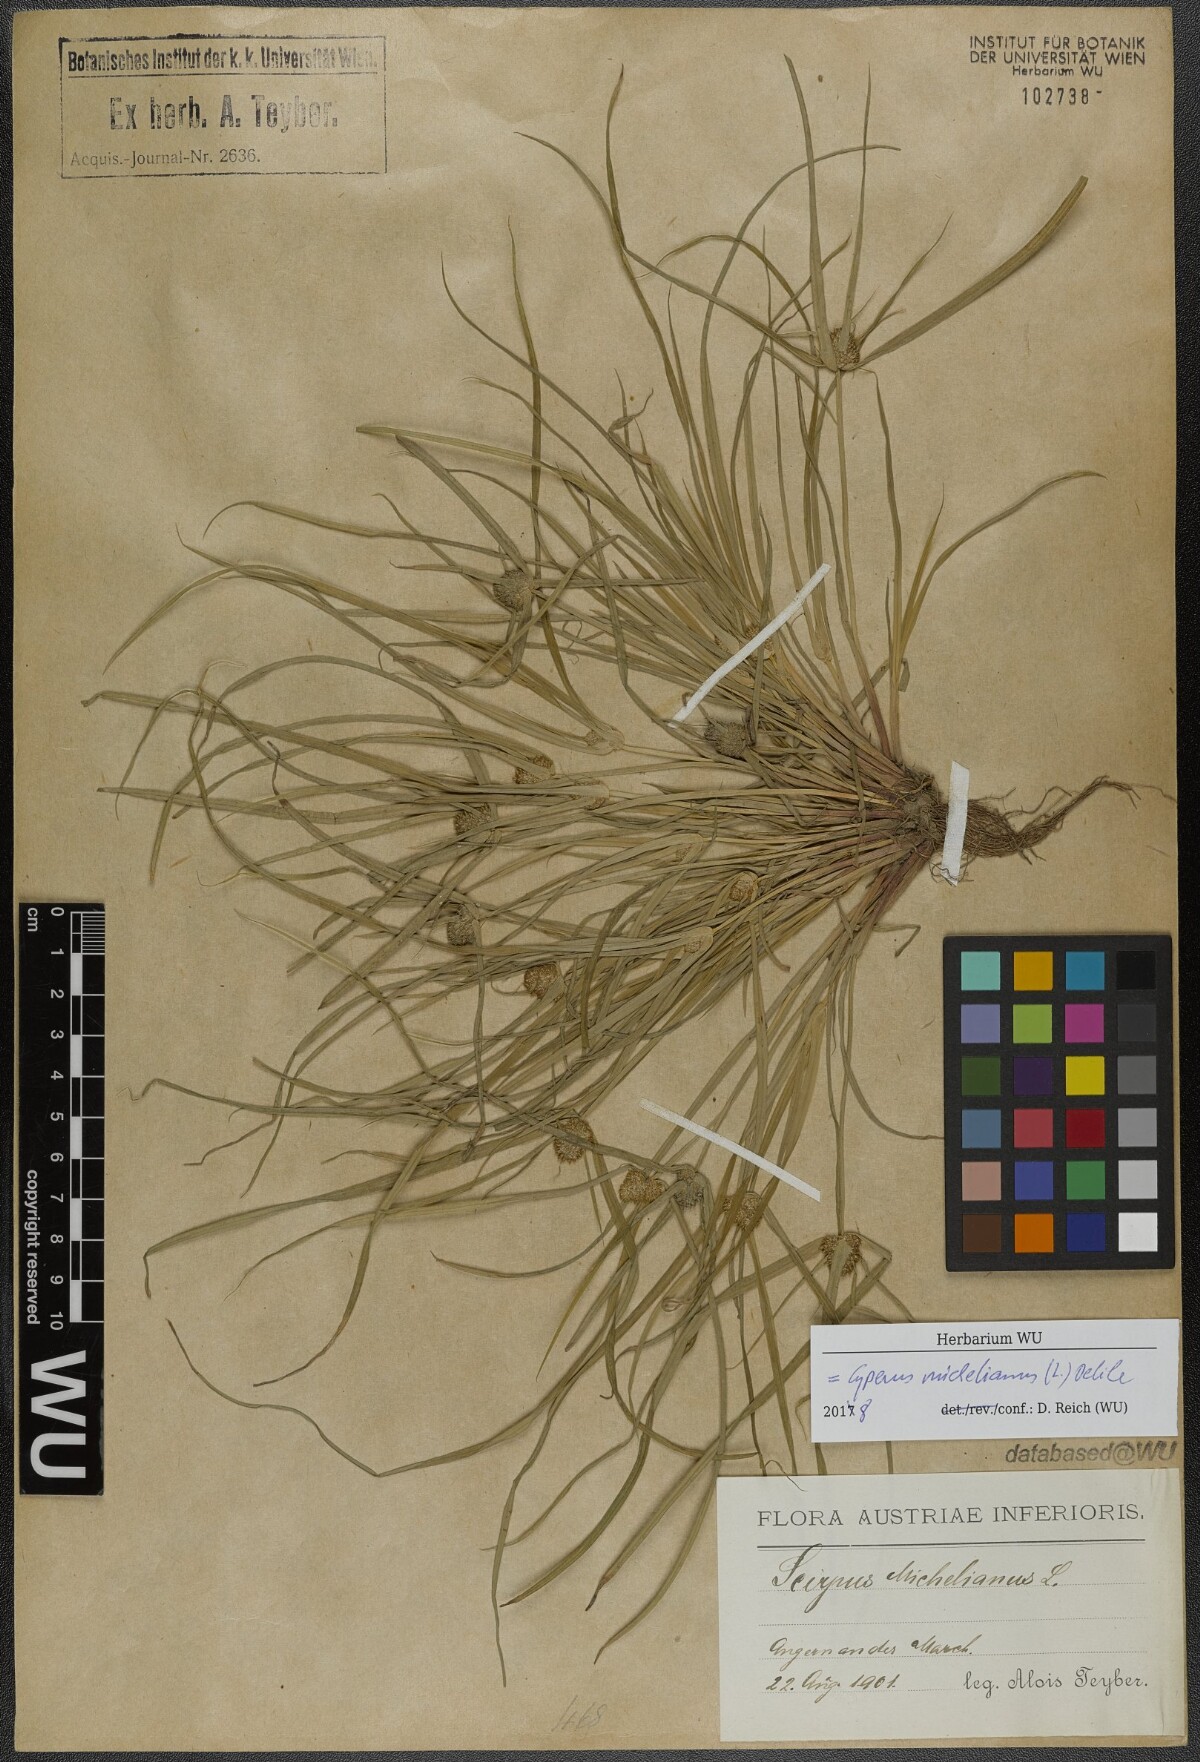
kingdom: Plantae
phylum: Tracheophyta
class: Liliopsida
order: Poales
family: Cyperaceae
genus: Cyperus
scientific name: Cyperus michelianus
